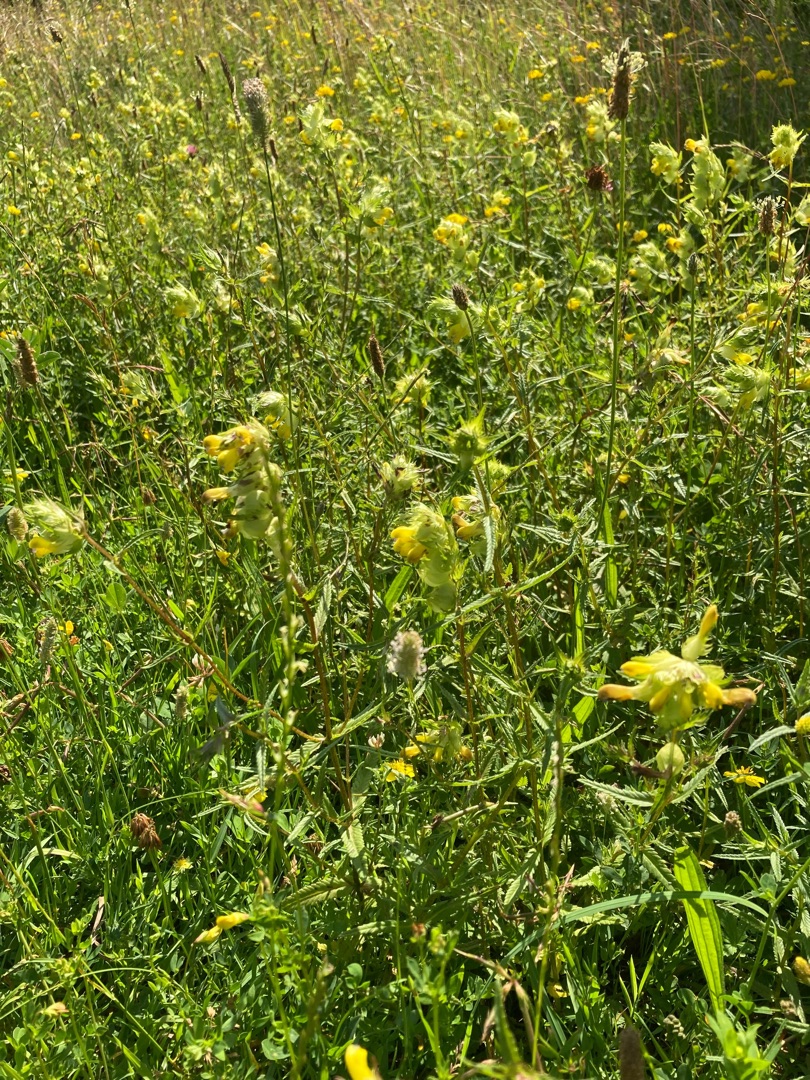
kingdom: Plantae
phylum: Tracheophyta
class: Magnoliopsida
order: Lamiales
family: Orobanchaceae
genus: Rhinanthus
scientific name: Rhinanthus
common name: Stor skjaller
